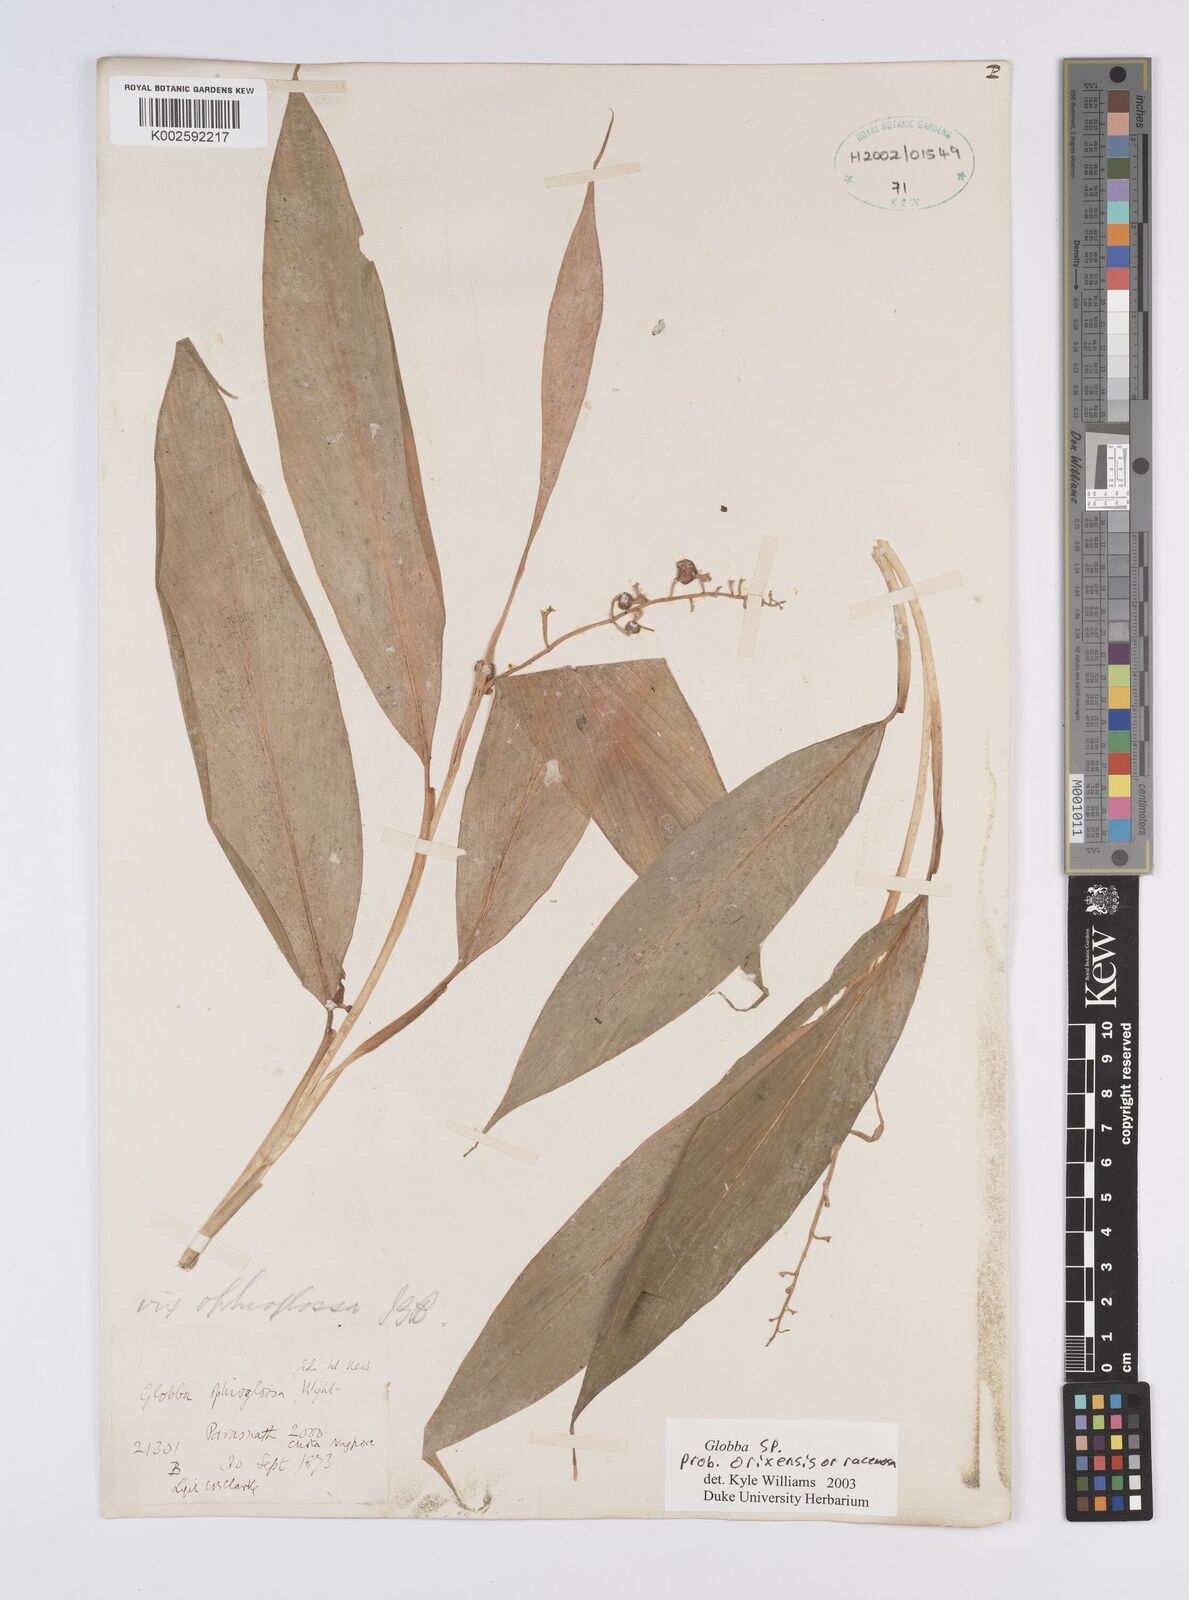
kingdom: Plantae
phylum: Tracheophyta
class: Liliopsida
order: Zingiberales
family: Zingiberaceae
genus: Globba
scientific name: Globba orixensis
